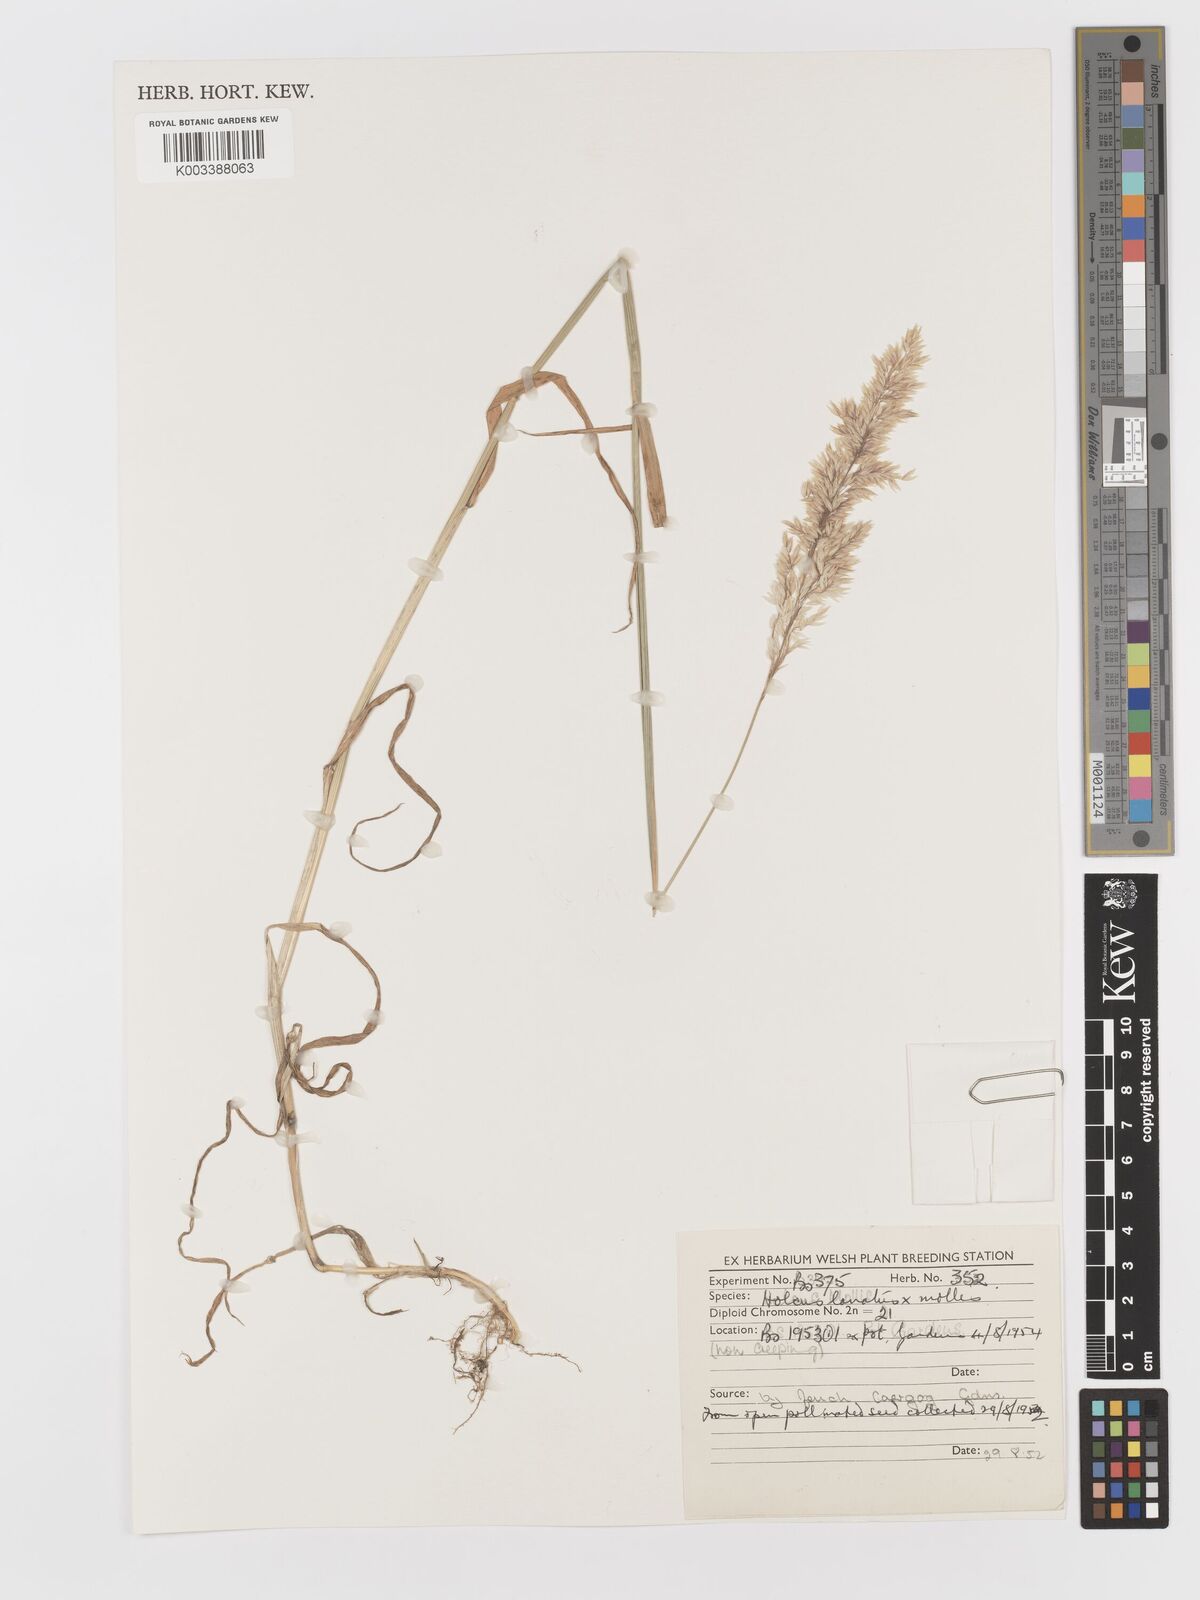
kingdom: Plantae
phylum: Tracheophyta
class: Liliopsida
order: Poales
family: Poaceae
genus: Holcus
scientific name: Holcus lanatus
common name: Yorkshire-fog
